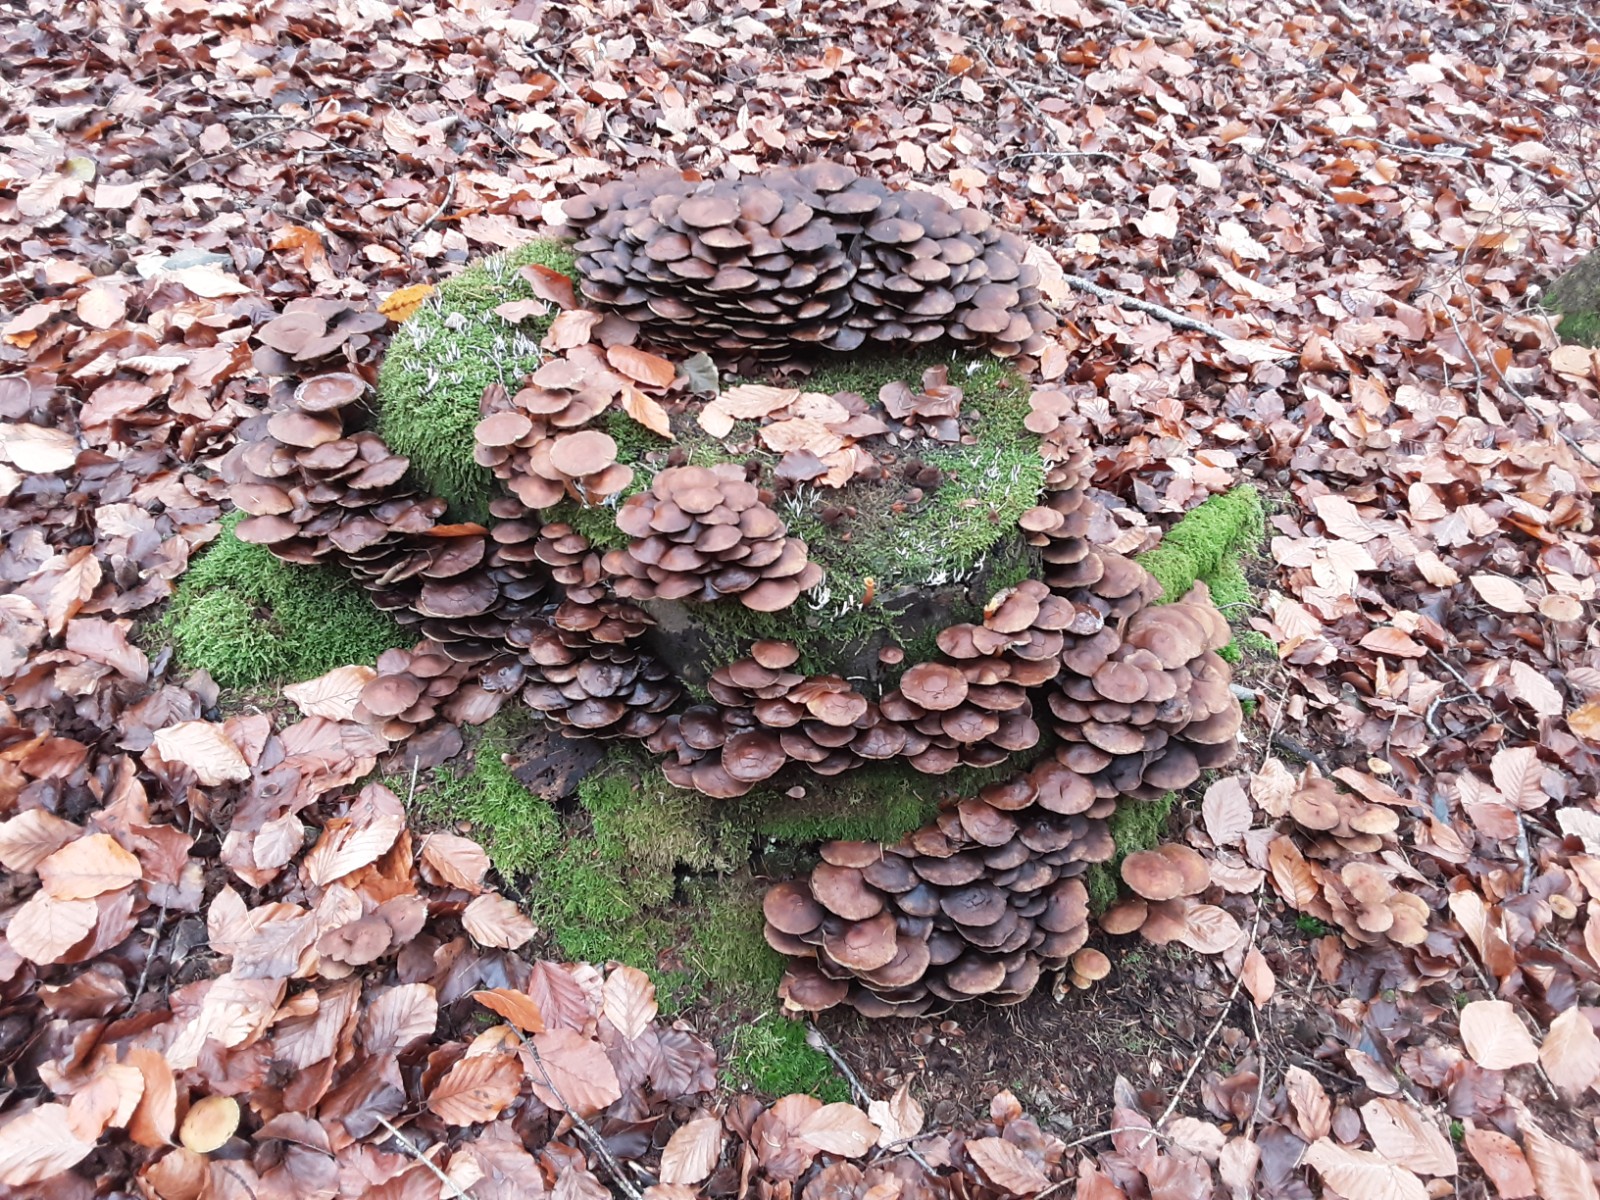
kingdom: Fungi
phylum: Basidiomycota
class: Agaricomycetes
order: Agaricales
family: Strophariaceae
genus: Hypholoma
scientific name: Hypholoma fasciculare
